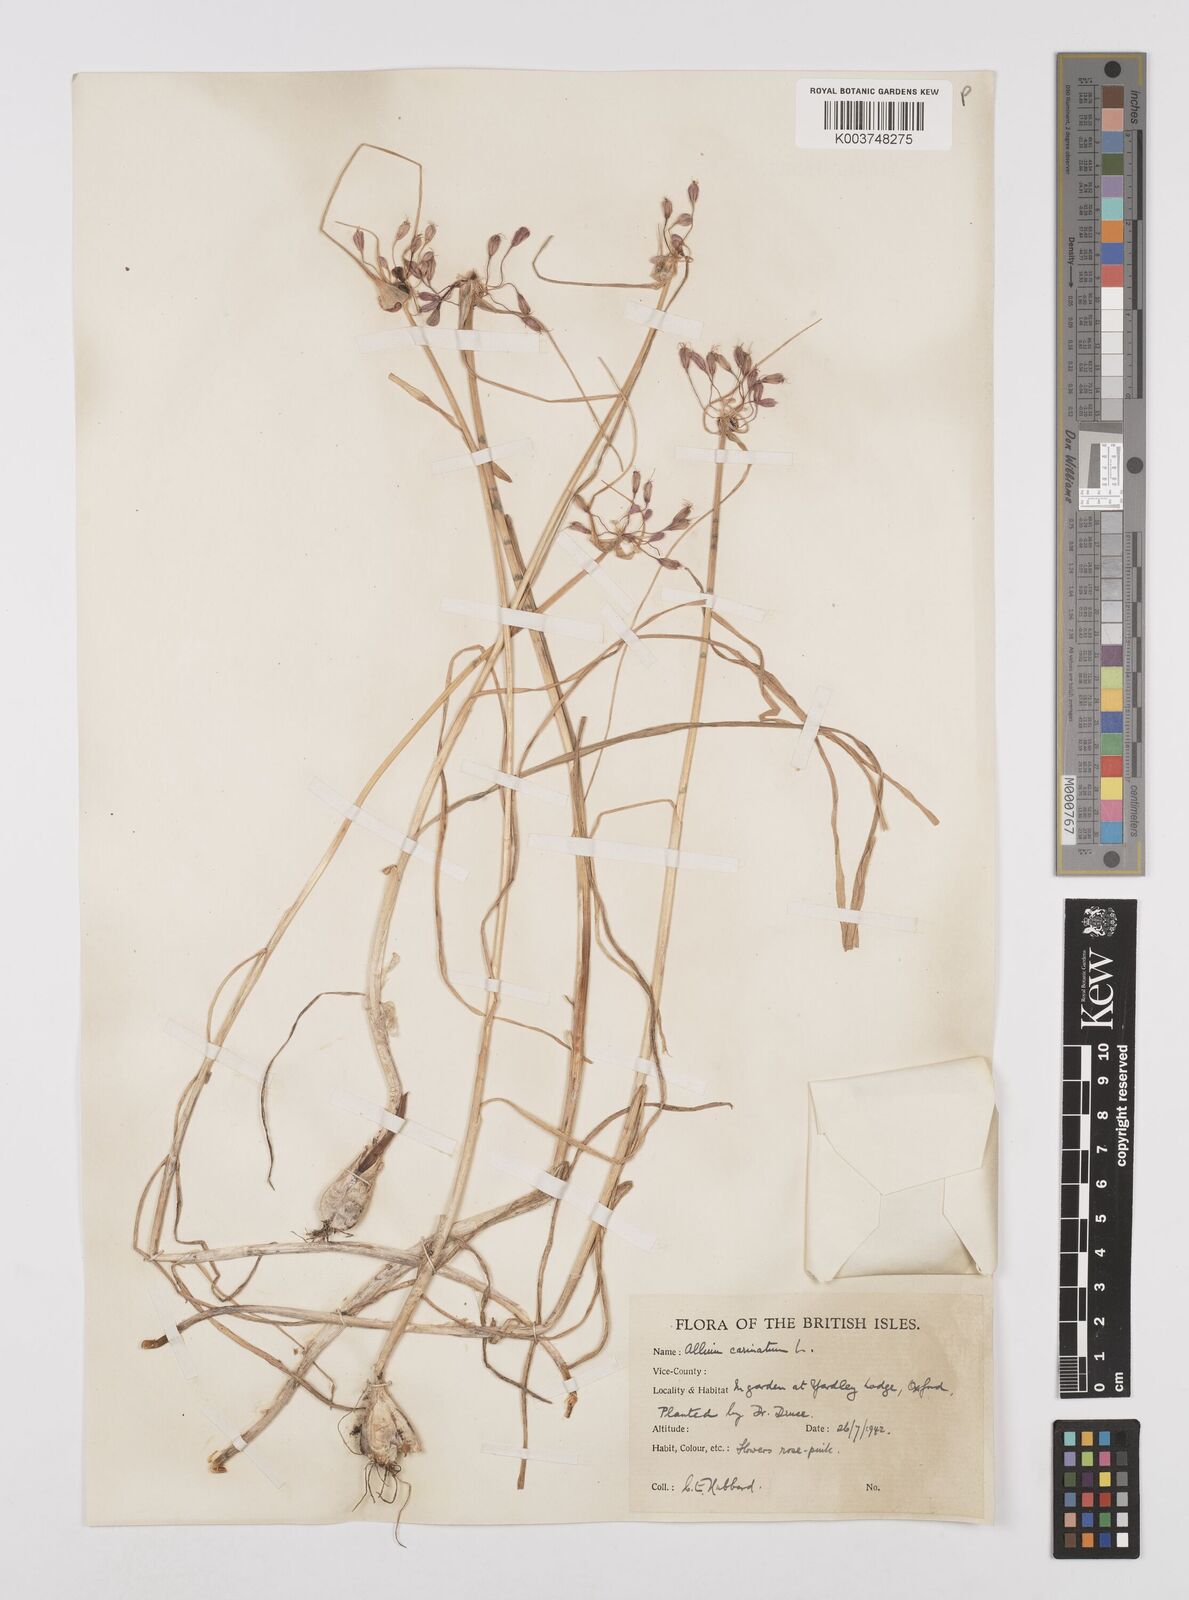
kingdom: Plantae
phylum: Tracheophyta
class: Liliopsida
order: Asparagales
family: Amaryllidaceae
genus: Allium
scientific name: Allium carinatum
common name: Keeled garlic
